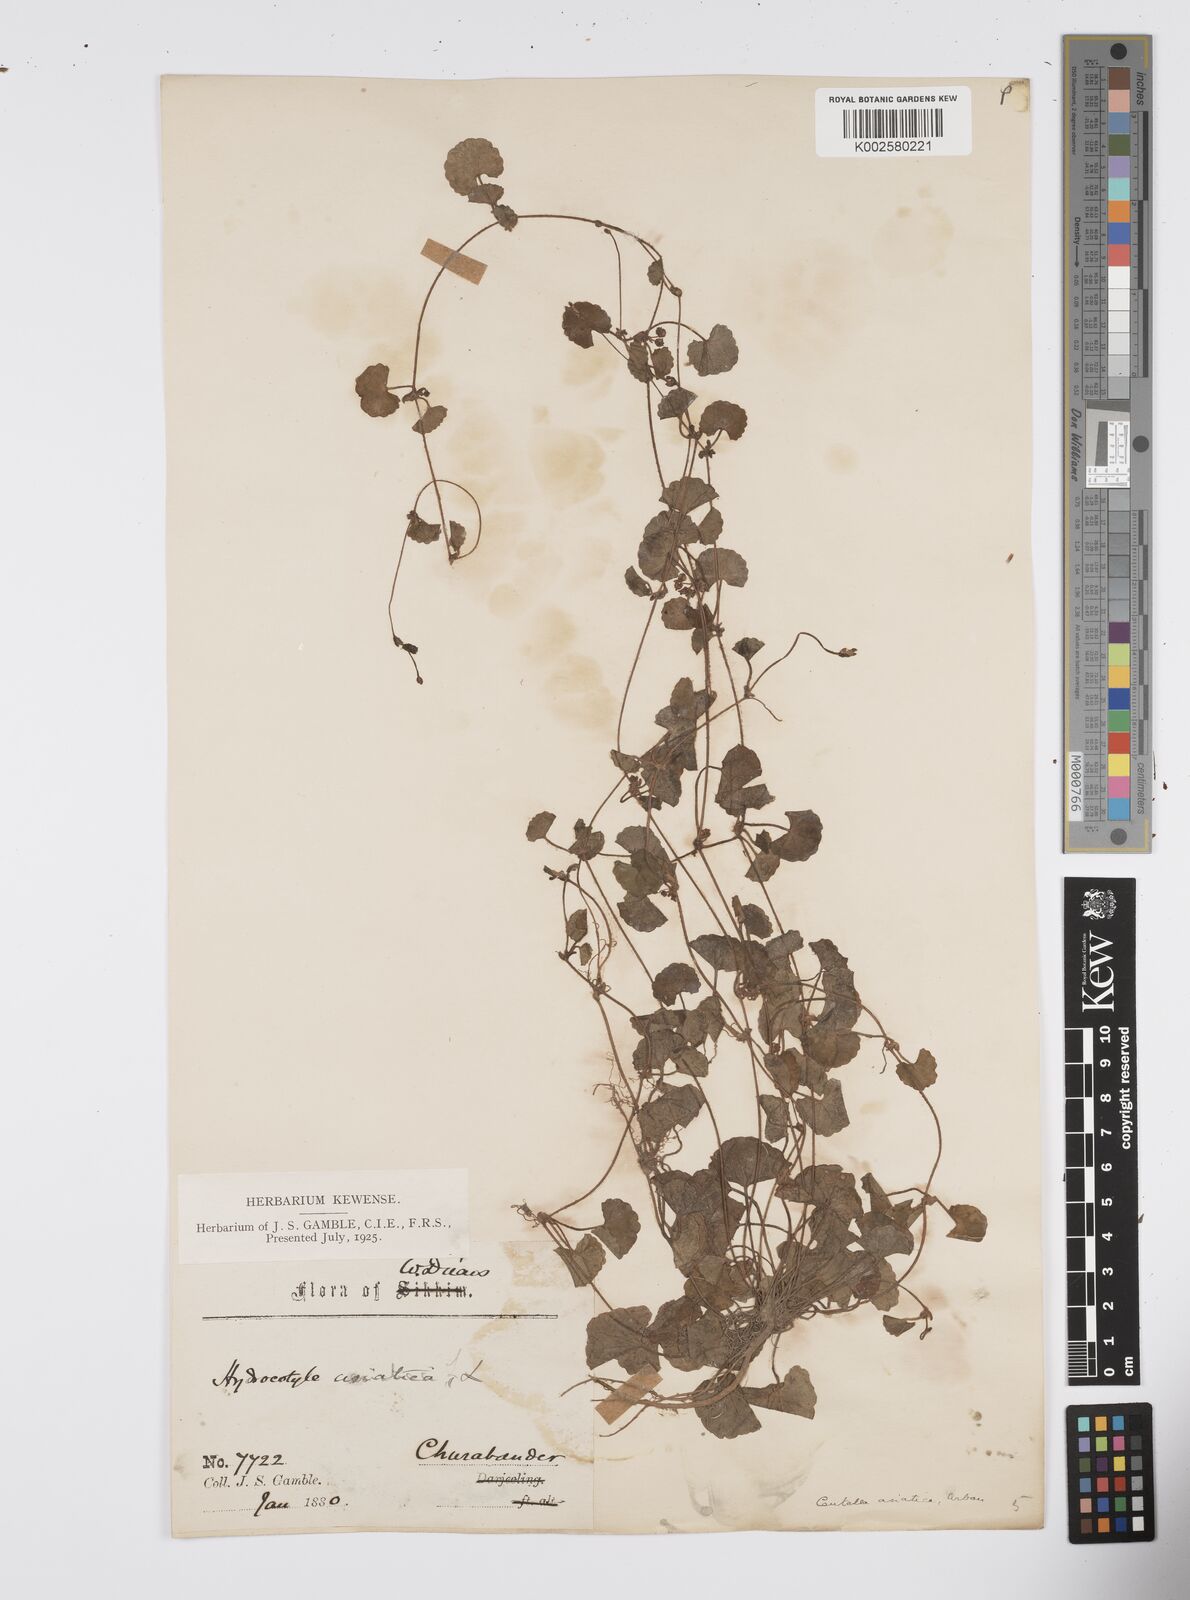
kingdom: Plantae
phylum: Tracheophyta
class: Magnoliopsida
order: Apiales
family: Apiaceae
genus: Centella
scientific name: Centella asiatica
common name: Spadeleaf
